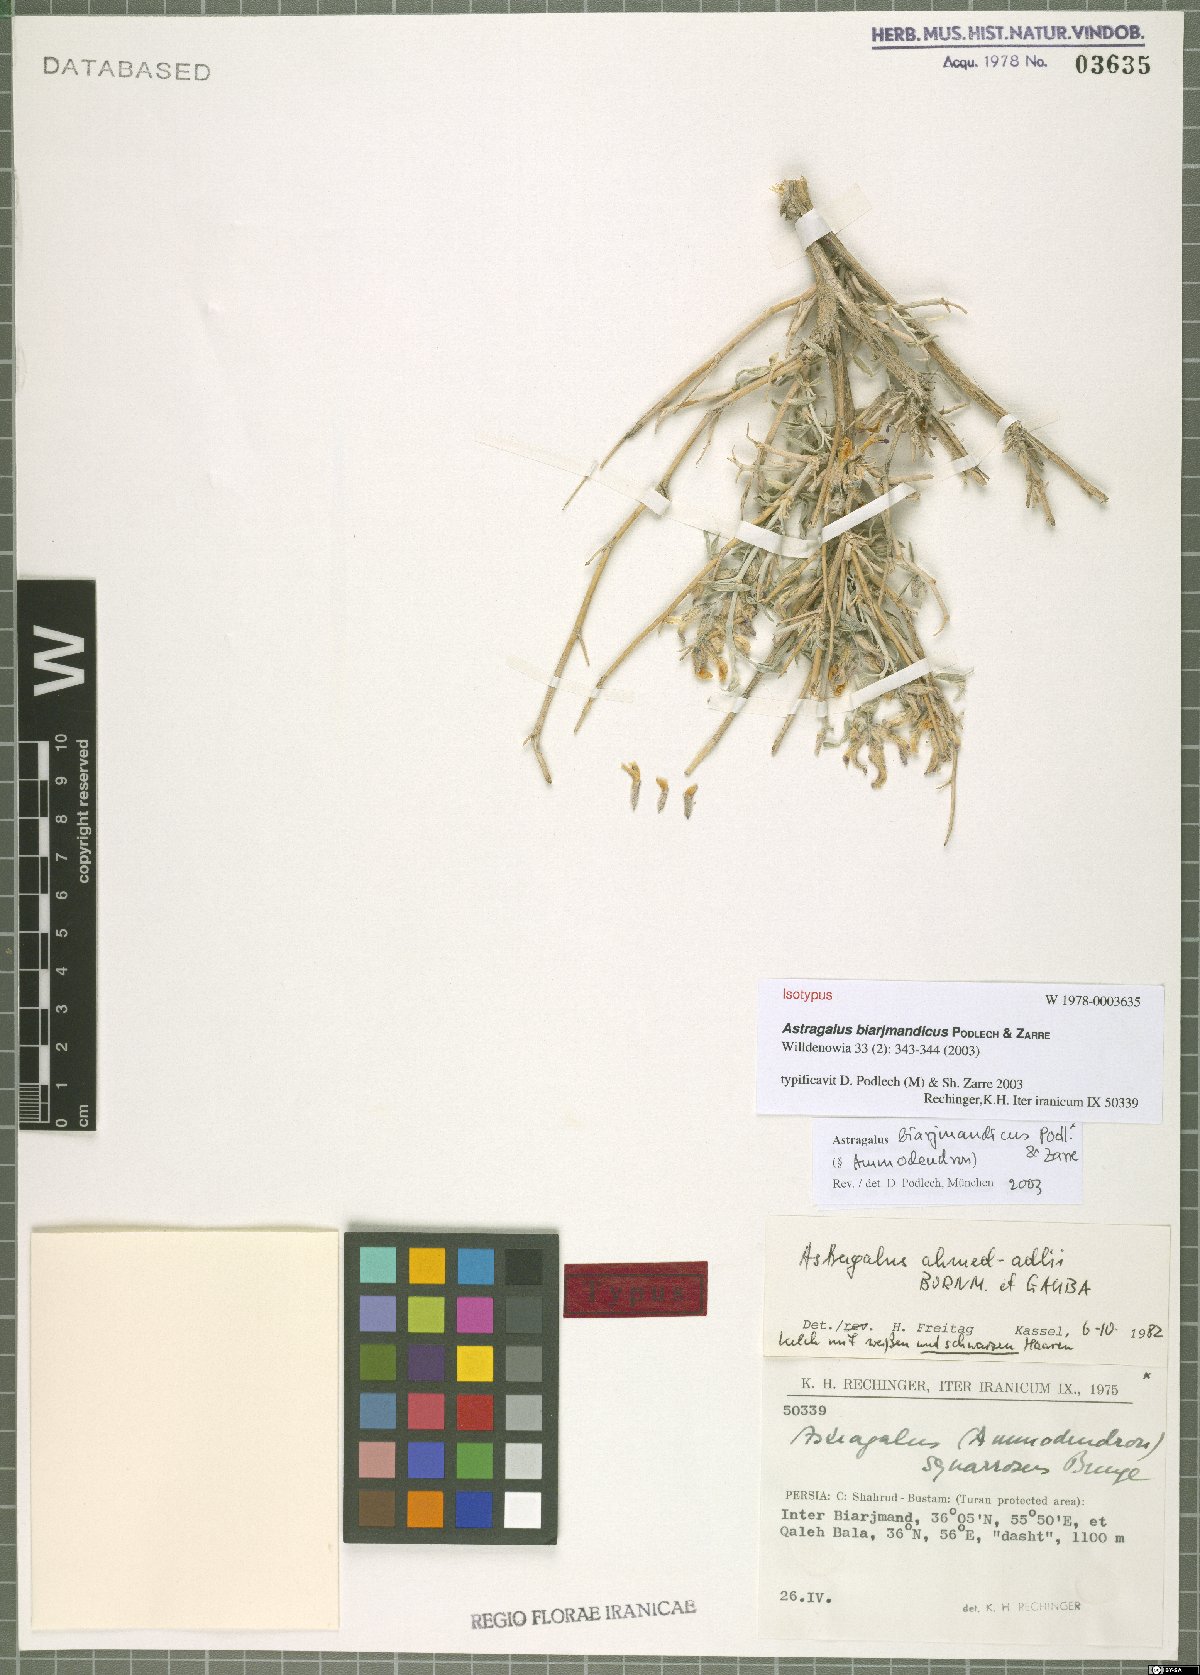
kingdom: Plantae
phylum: Tracheophyta
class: Magnoliopsida
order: Fabales
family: Fabaceae
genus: Astragalus
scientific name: Astragalus biarjmandicus
